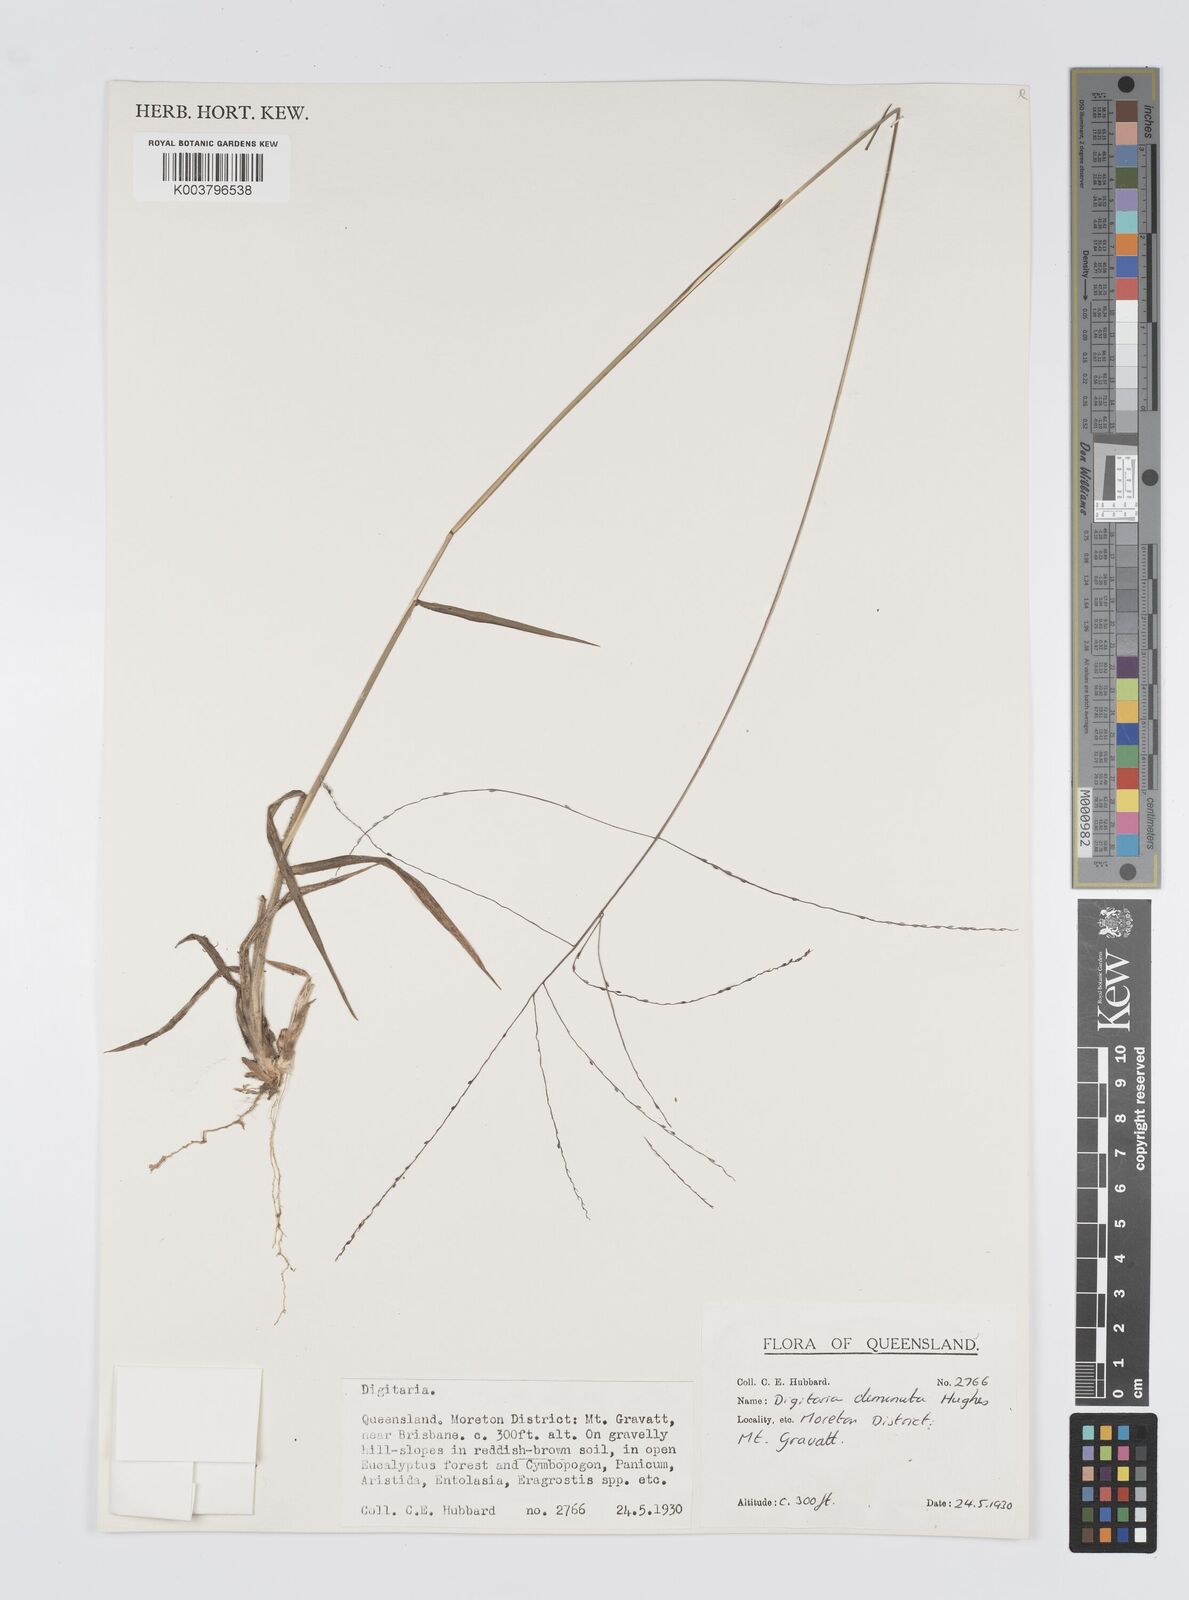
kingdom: Plantae
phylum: Tracheophyta
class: Liliopsida
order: Poales
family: Poaceae
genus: Digitaria
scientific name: Digitaria breviglumis
